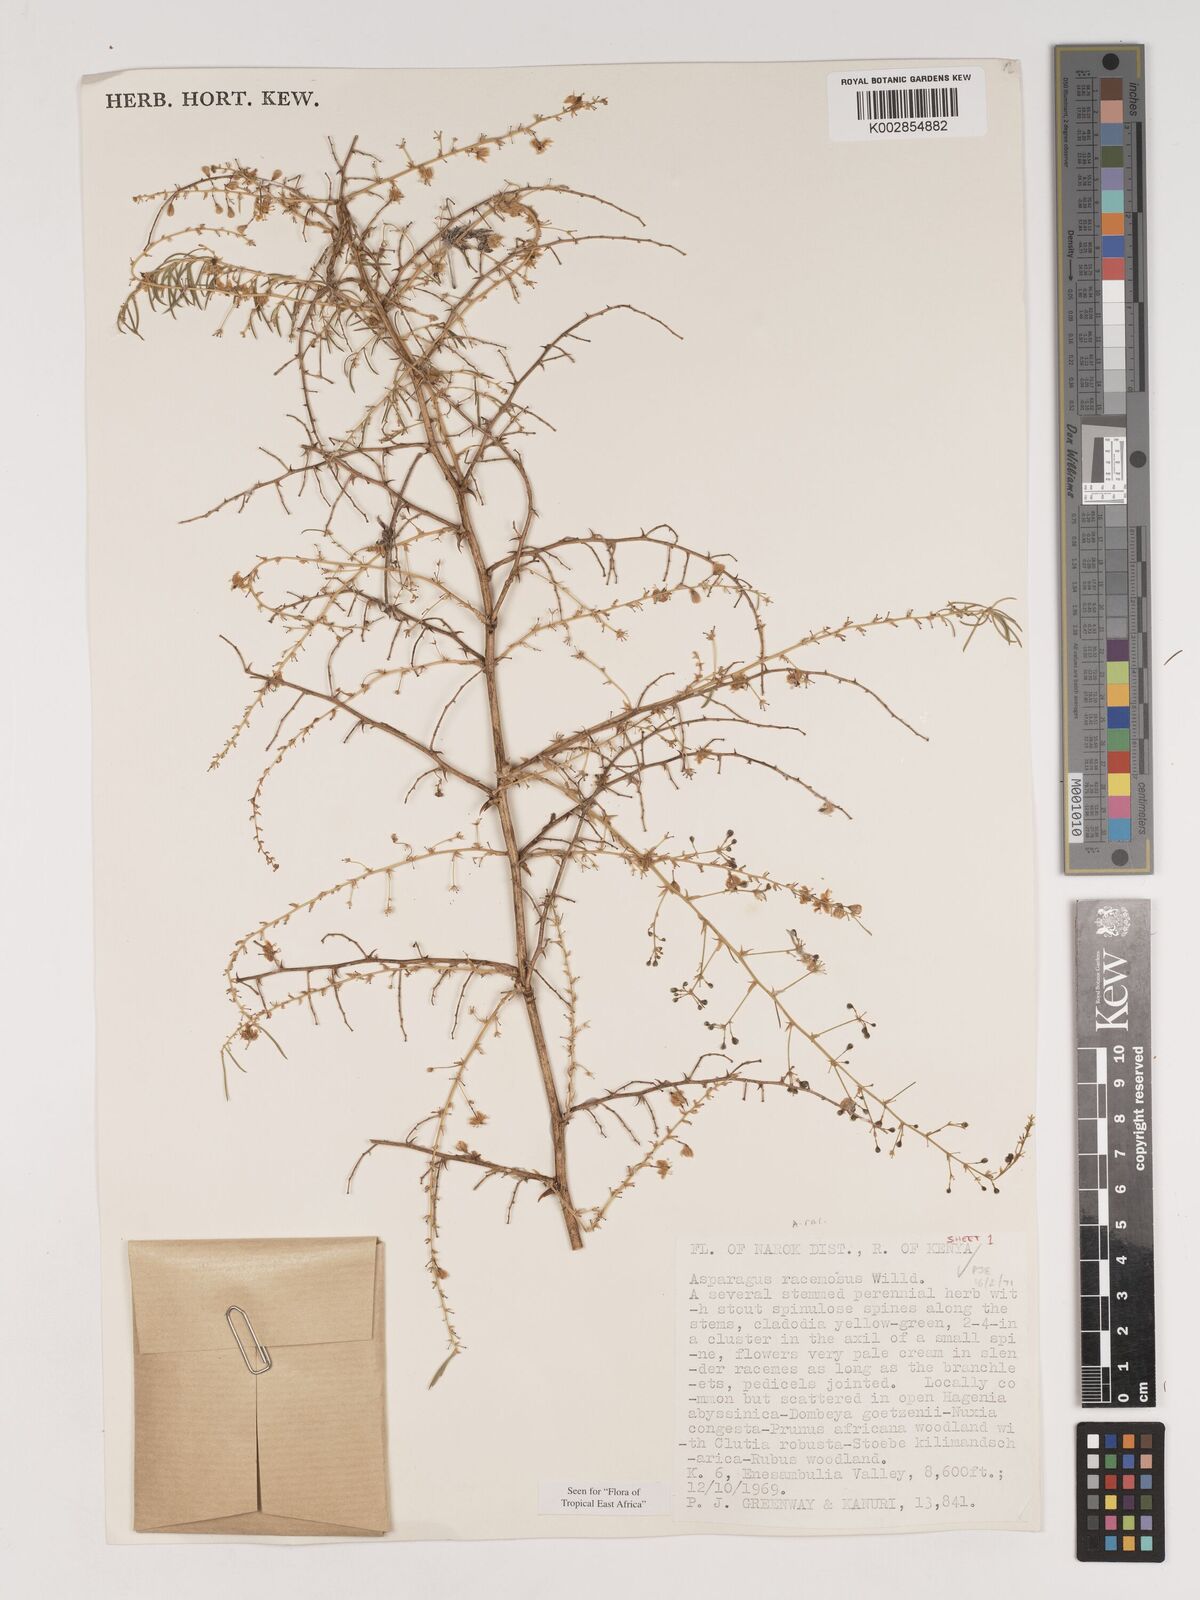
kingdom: Plantae
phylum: Tracheophyta
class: Liliopsida
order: Asparagales
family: Asparagaceae
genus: Asparagus
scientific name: Asparagus racemosus
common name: Asparagus-fern
